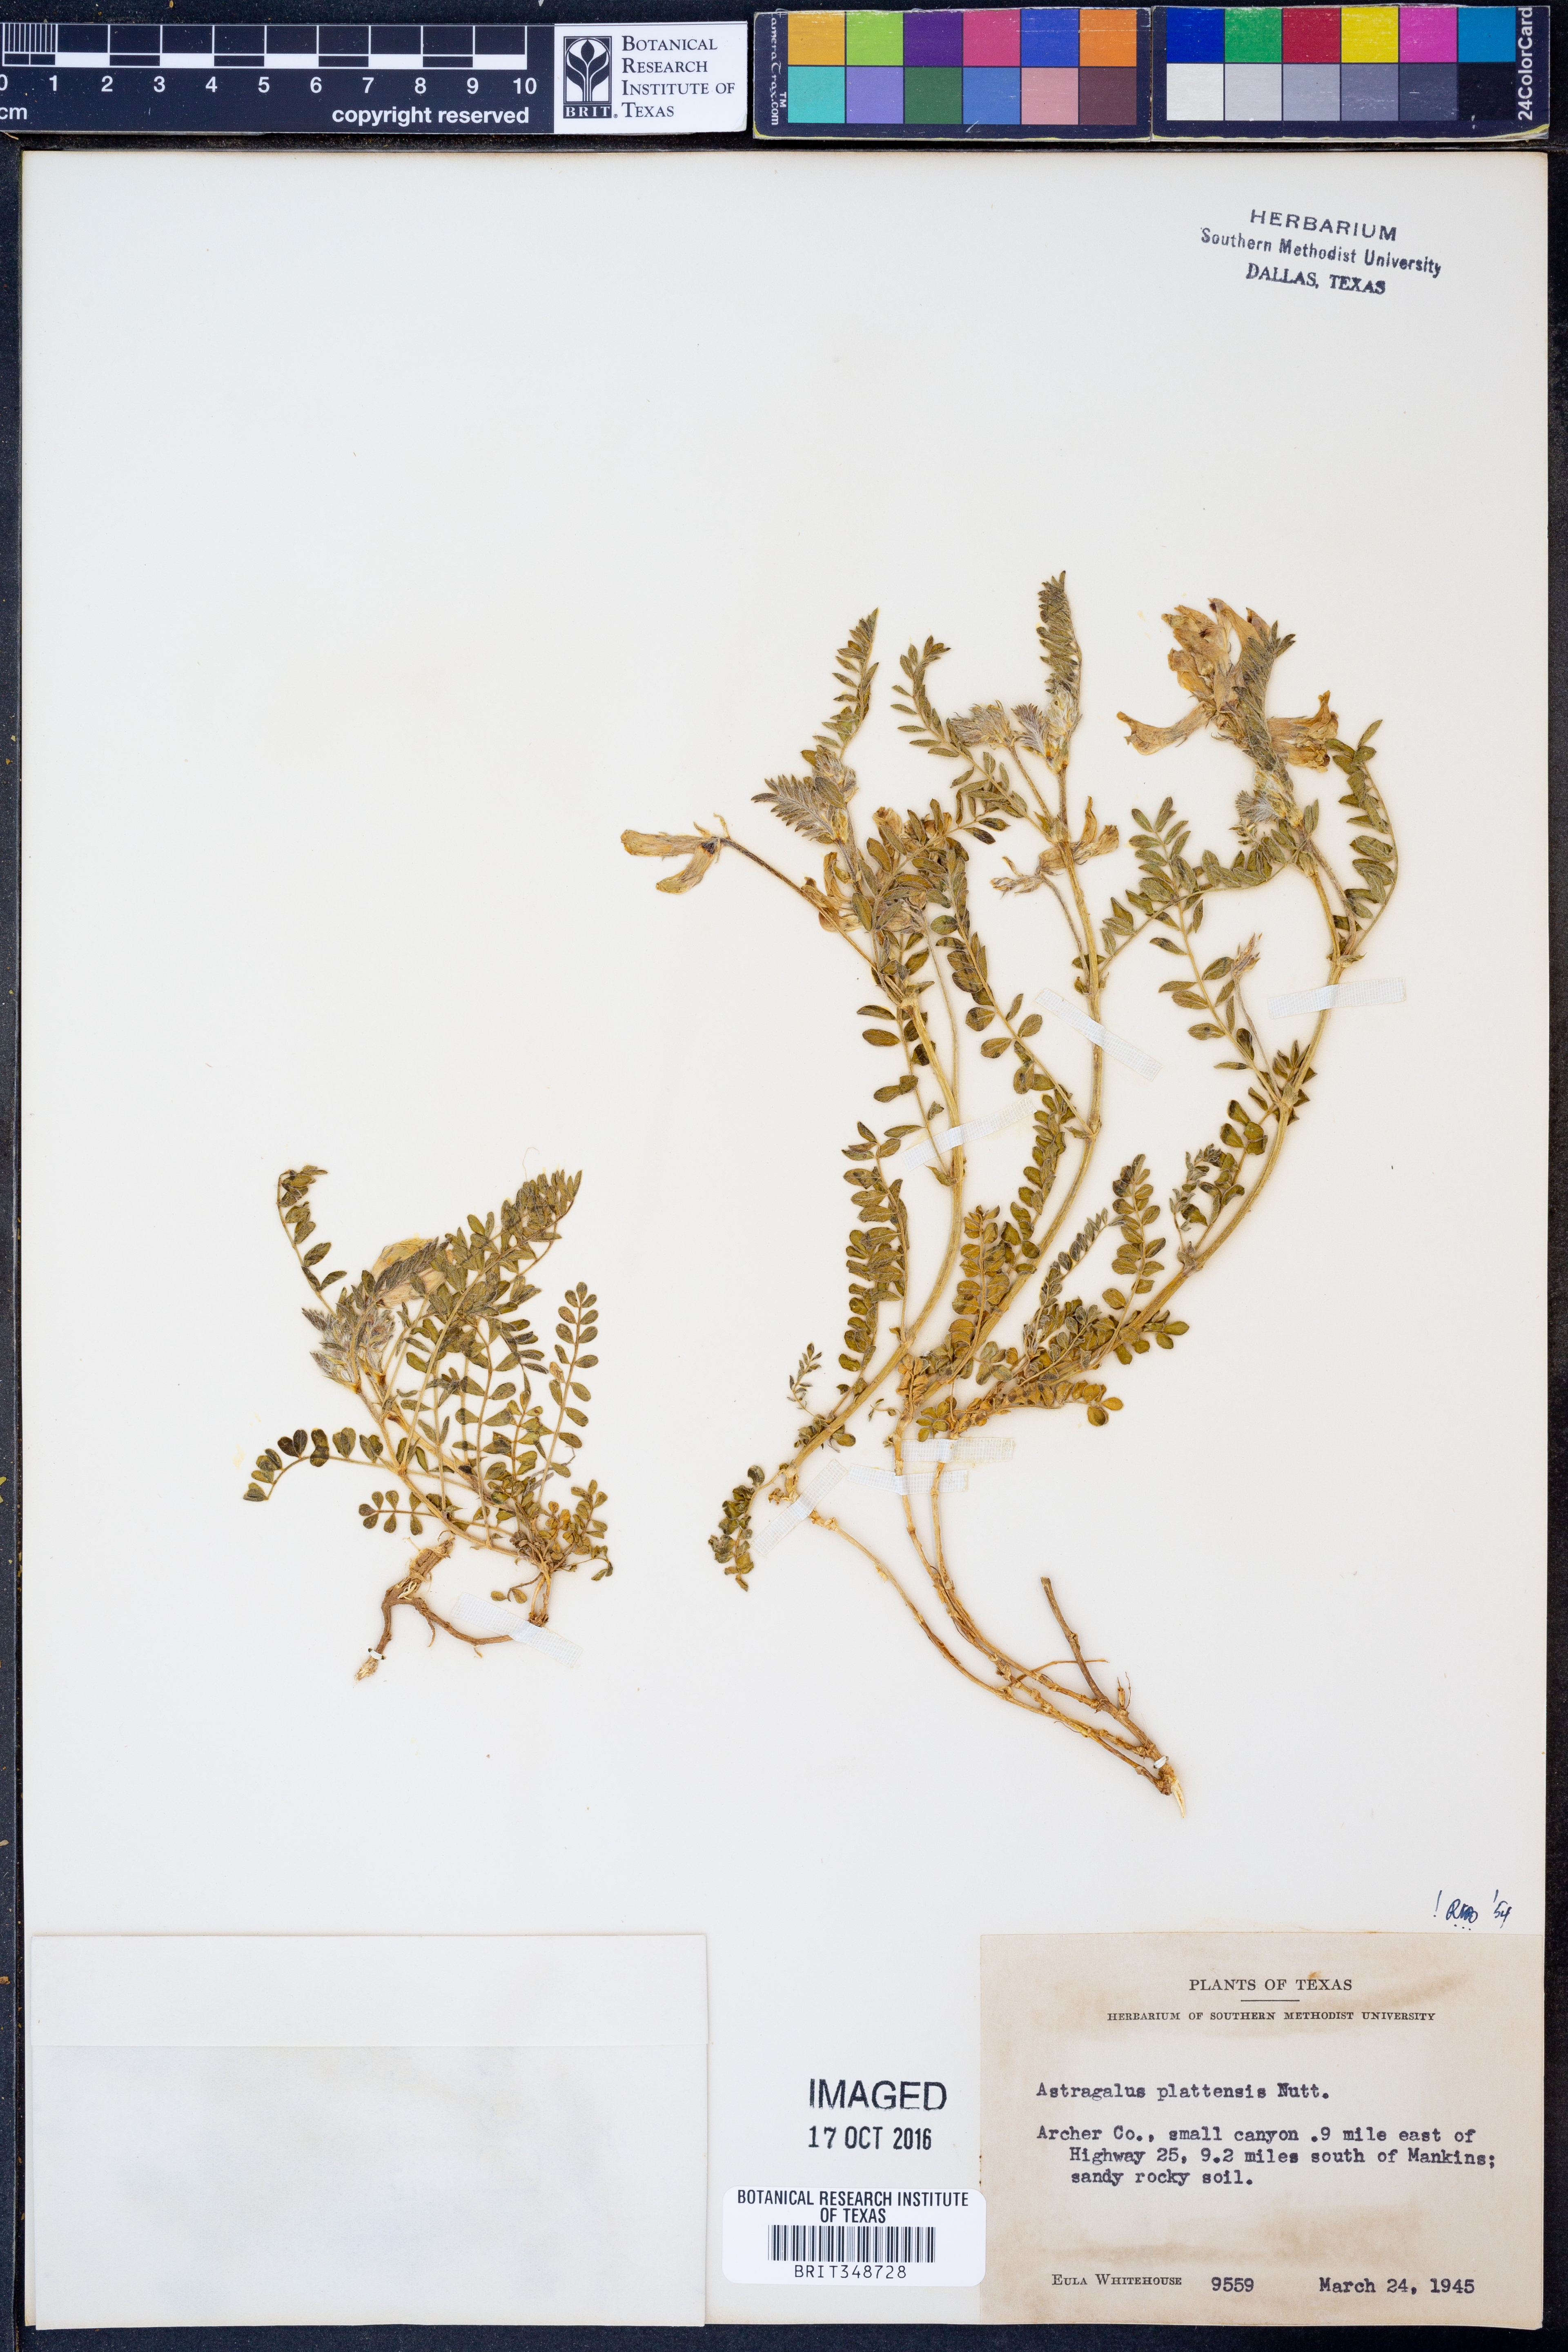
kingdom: Plantae
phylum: Tracheophyta
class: Magnoliopsida
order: Fabales
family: Fabaceae
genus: Astragalus
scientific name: Astragalus plattensis
